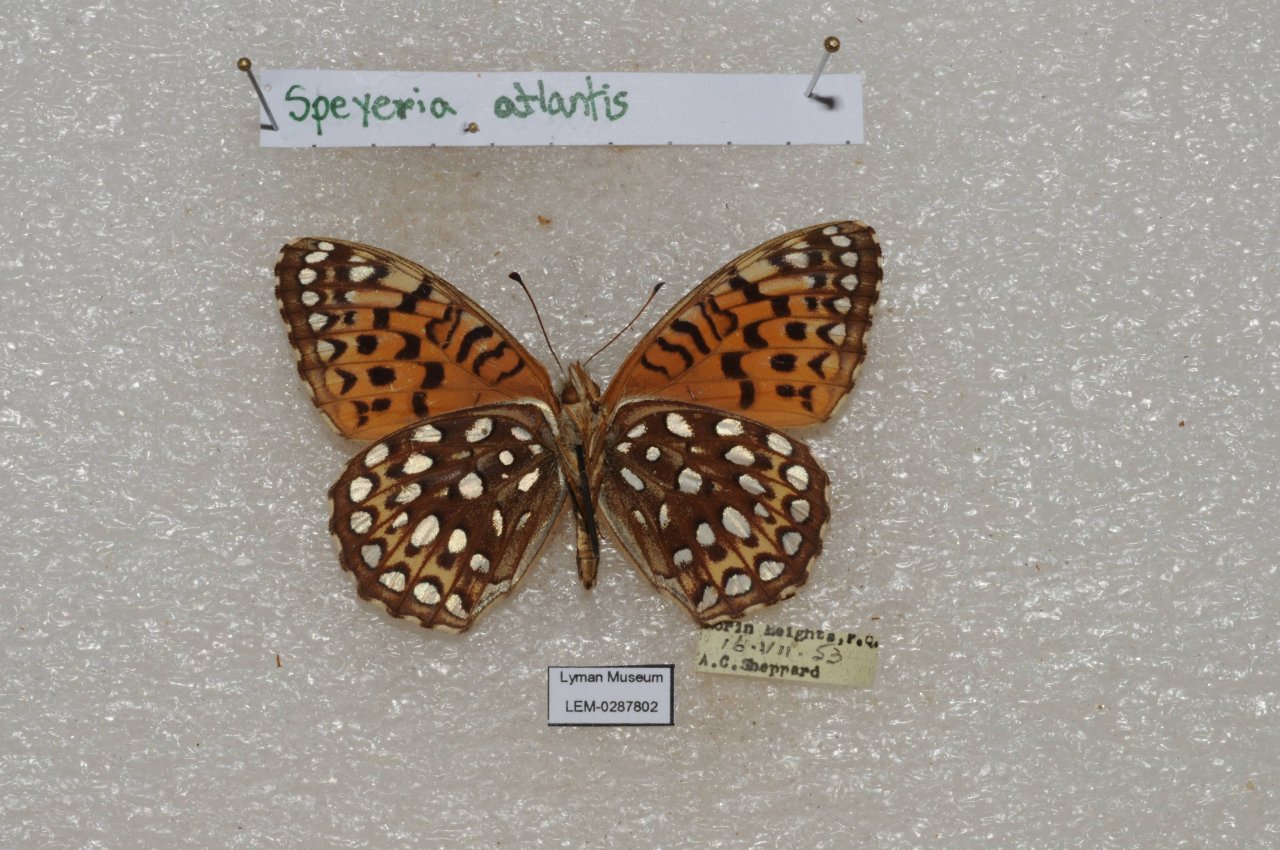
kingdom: Animalia
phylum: Arthropoda
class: Insecta
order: Lepidoptera
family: Nymphalidae
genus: Speyeria
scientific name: Speyeria atlantis
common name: Atlantis Fritillary
